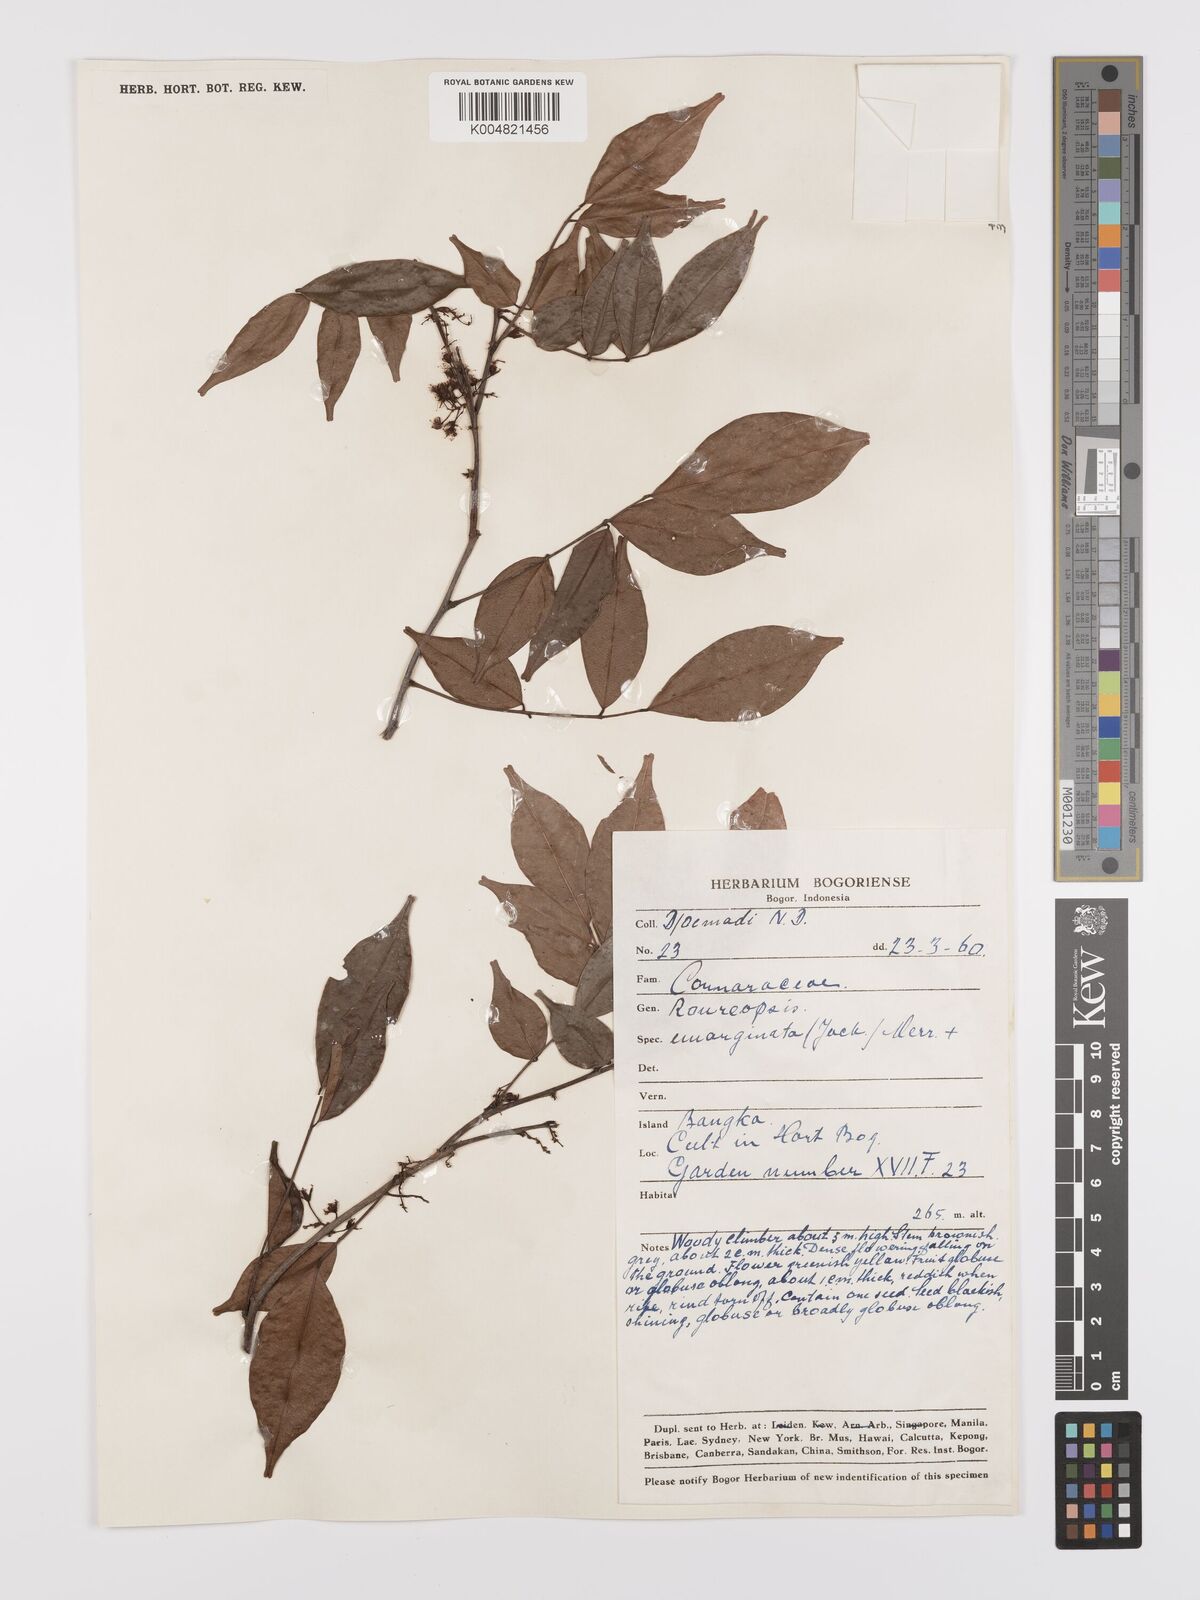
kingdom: Plantae
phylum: Tracheophyta
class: Magnoliopsida
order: Oxalidales
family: Connaraceae
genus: Rourea
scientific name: Rourea emarginata
